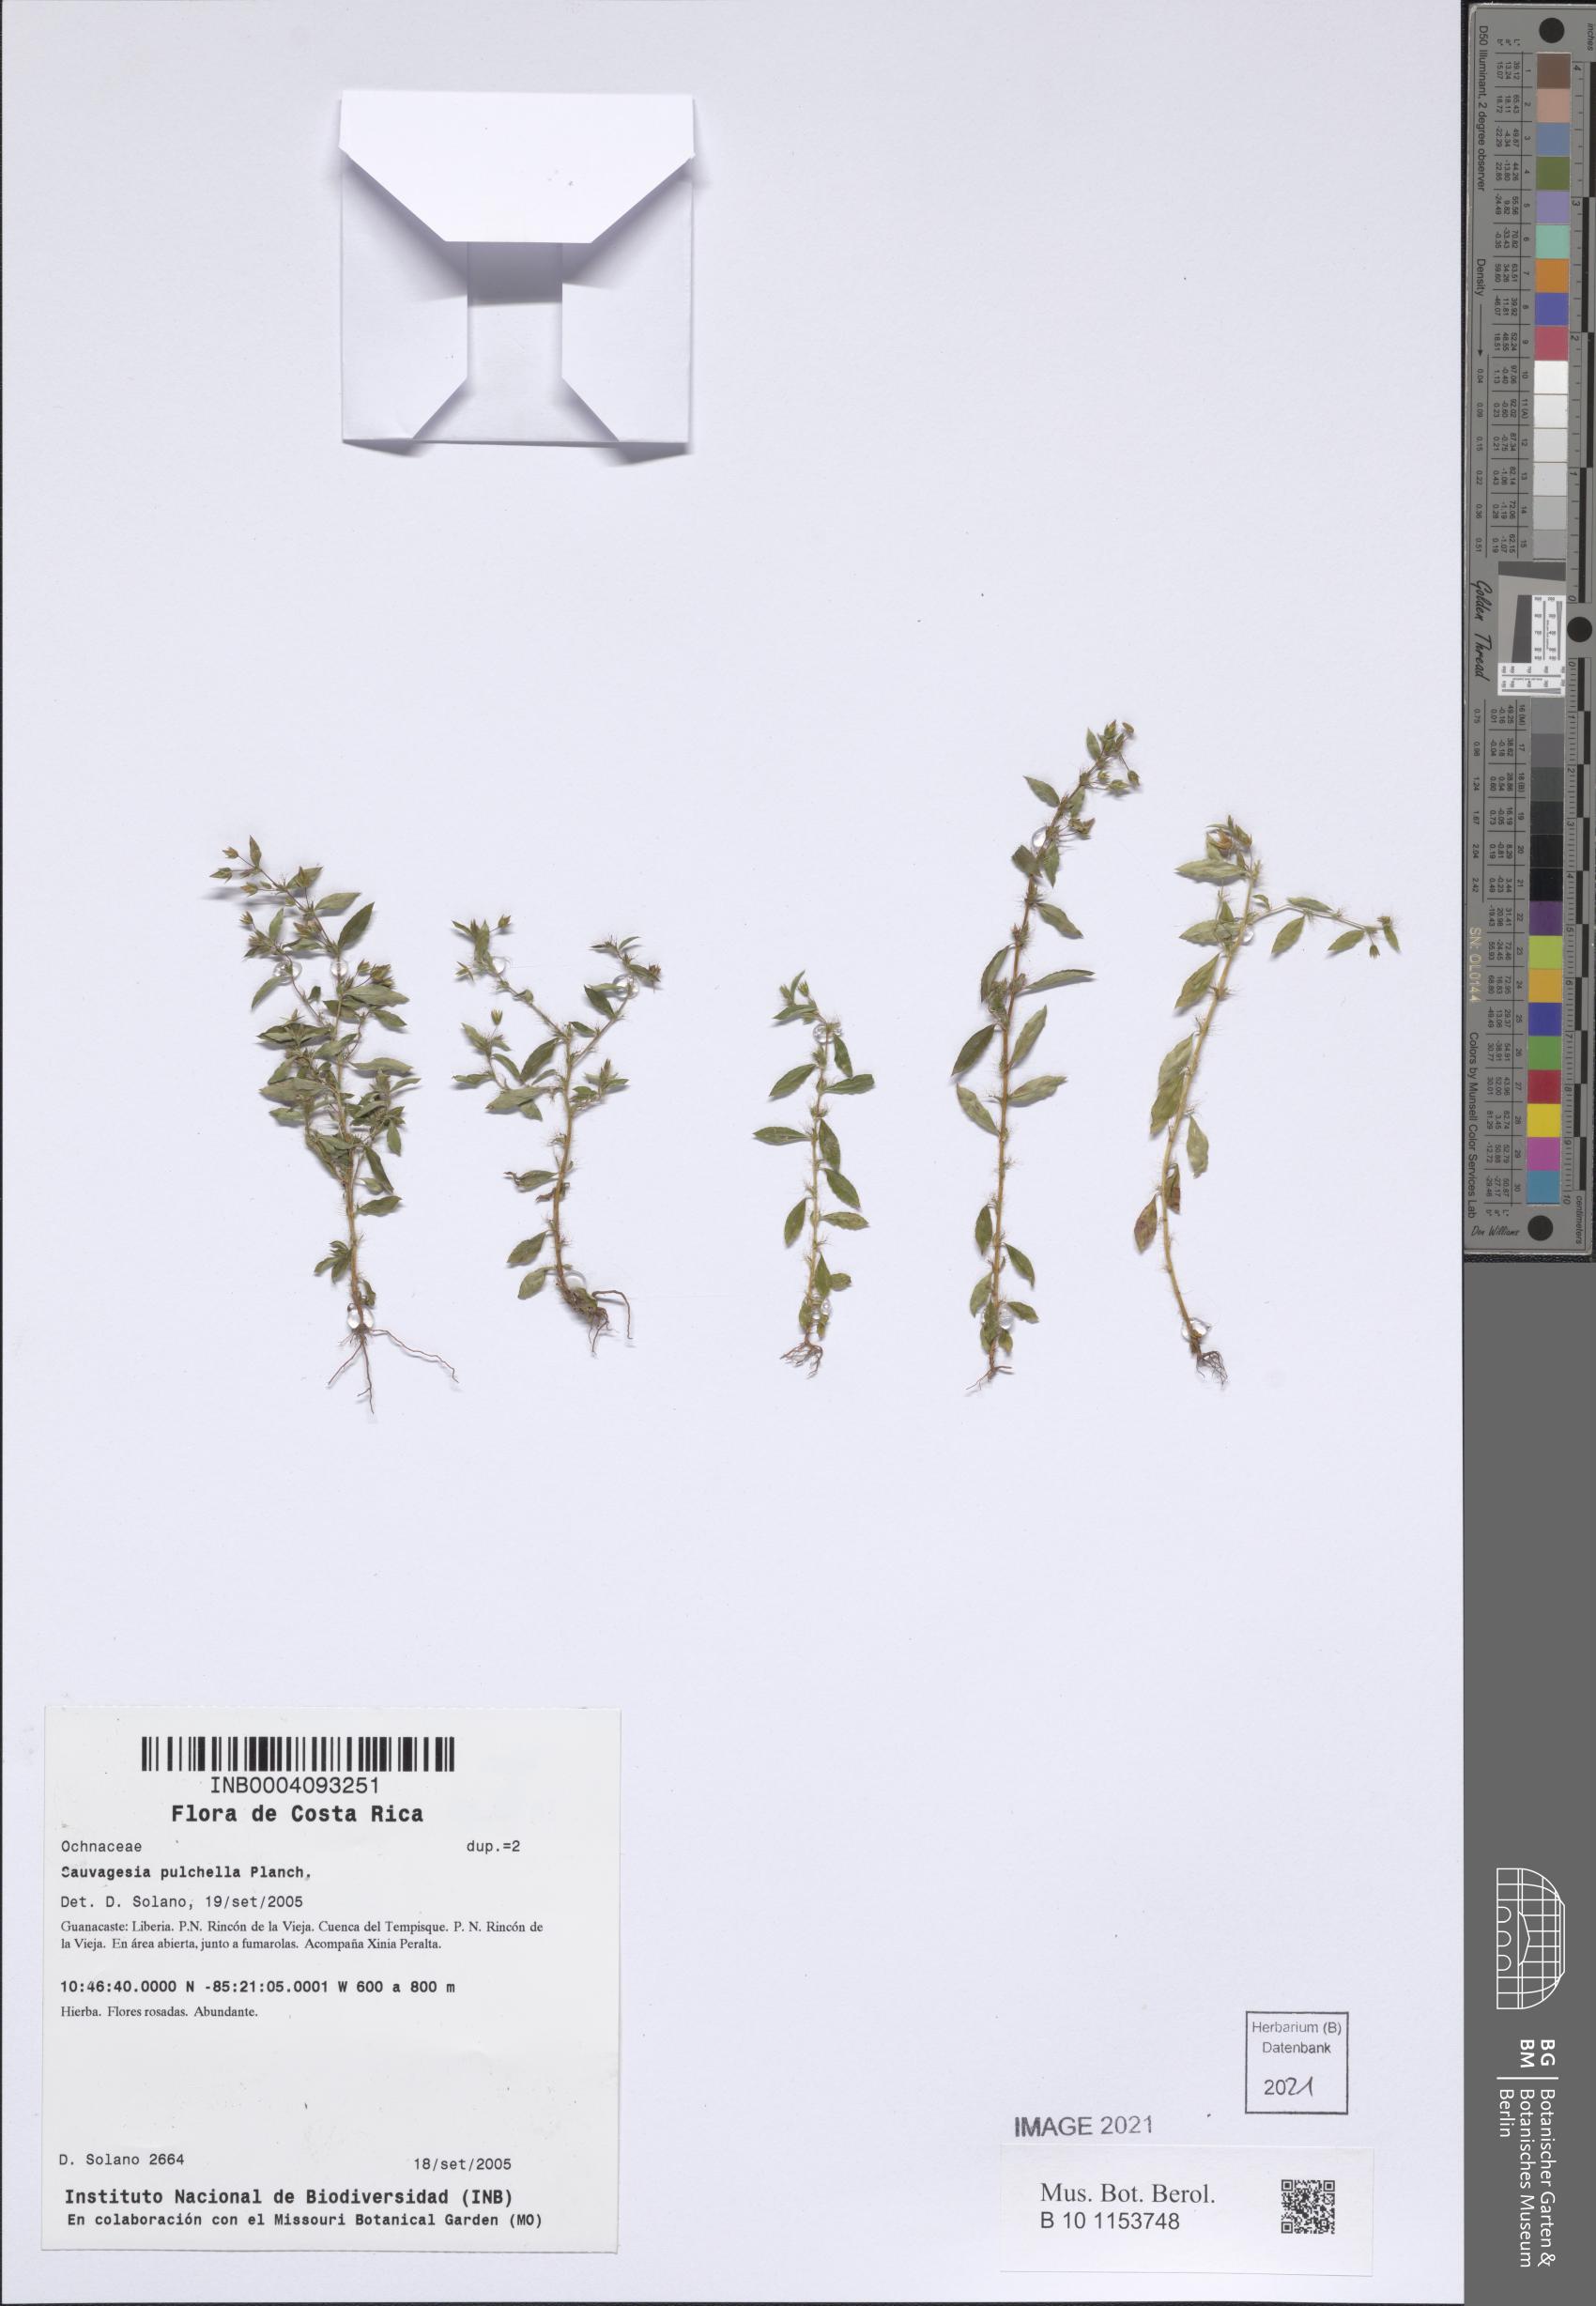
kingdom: Plantae
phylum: Tracheophyta
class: Magnoliopsida
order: Malpighiales
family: Ochnaceae
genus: Sauvagesia
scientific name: Sauvagesia pulchella
